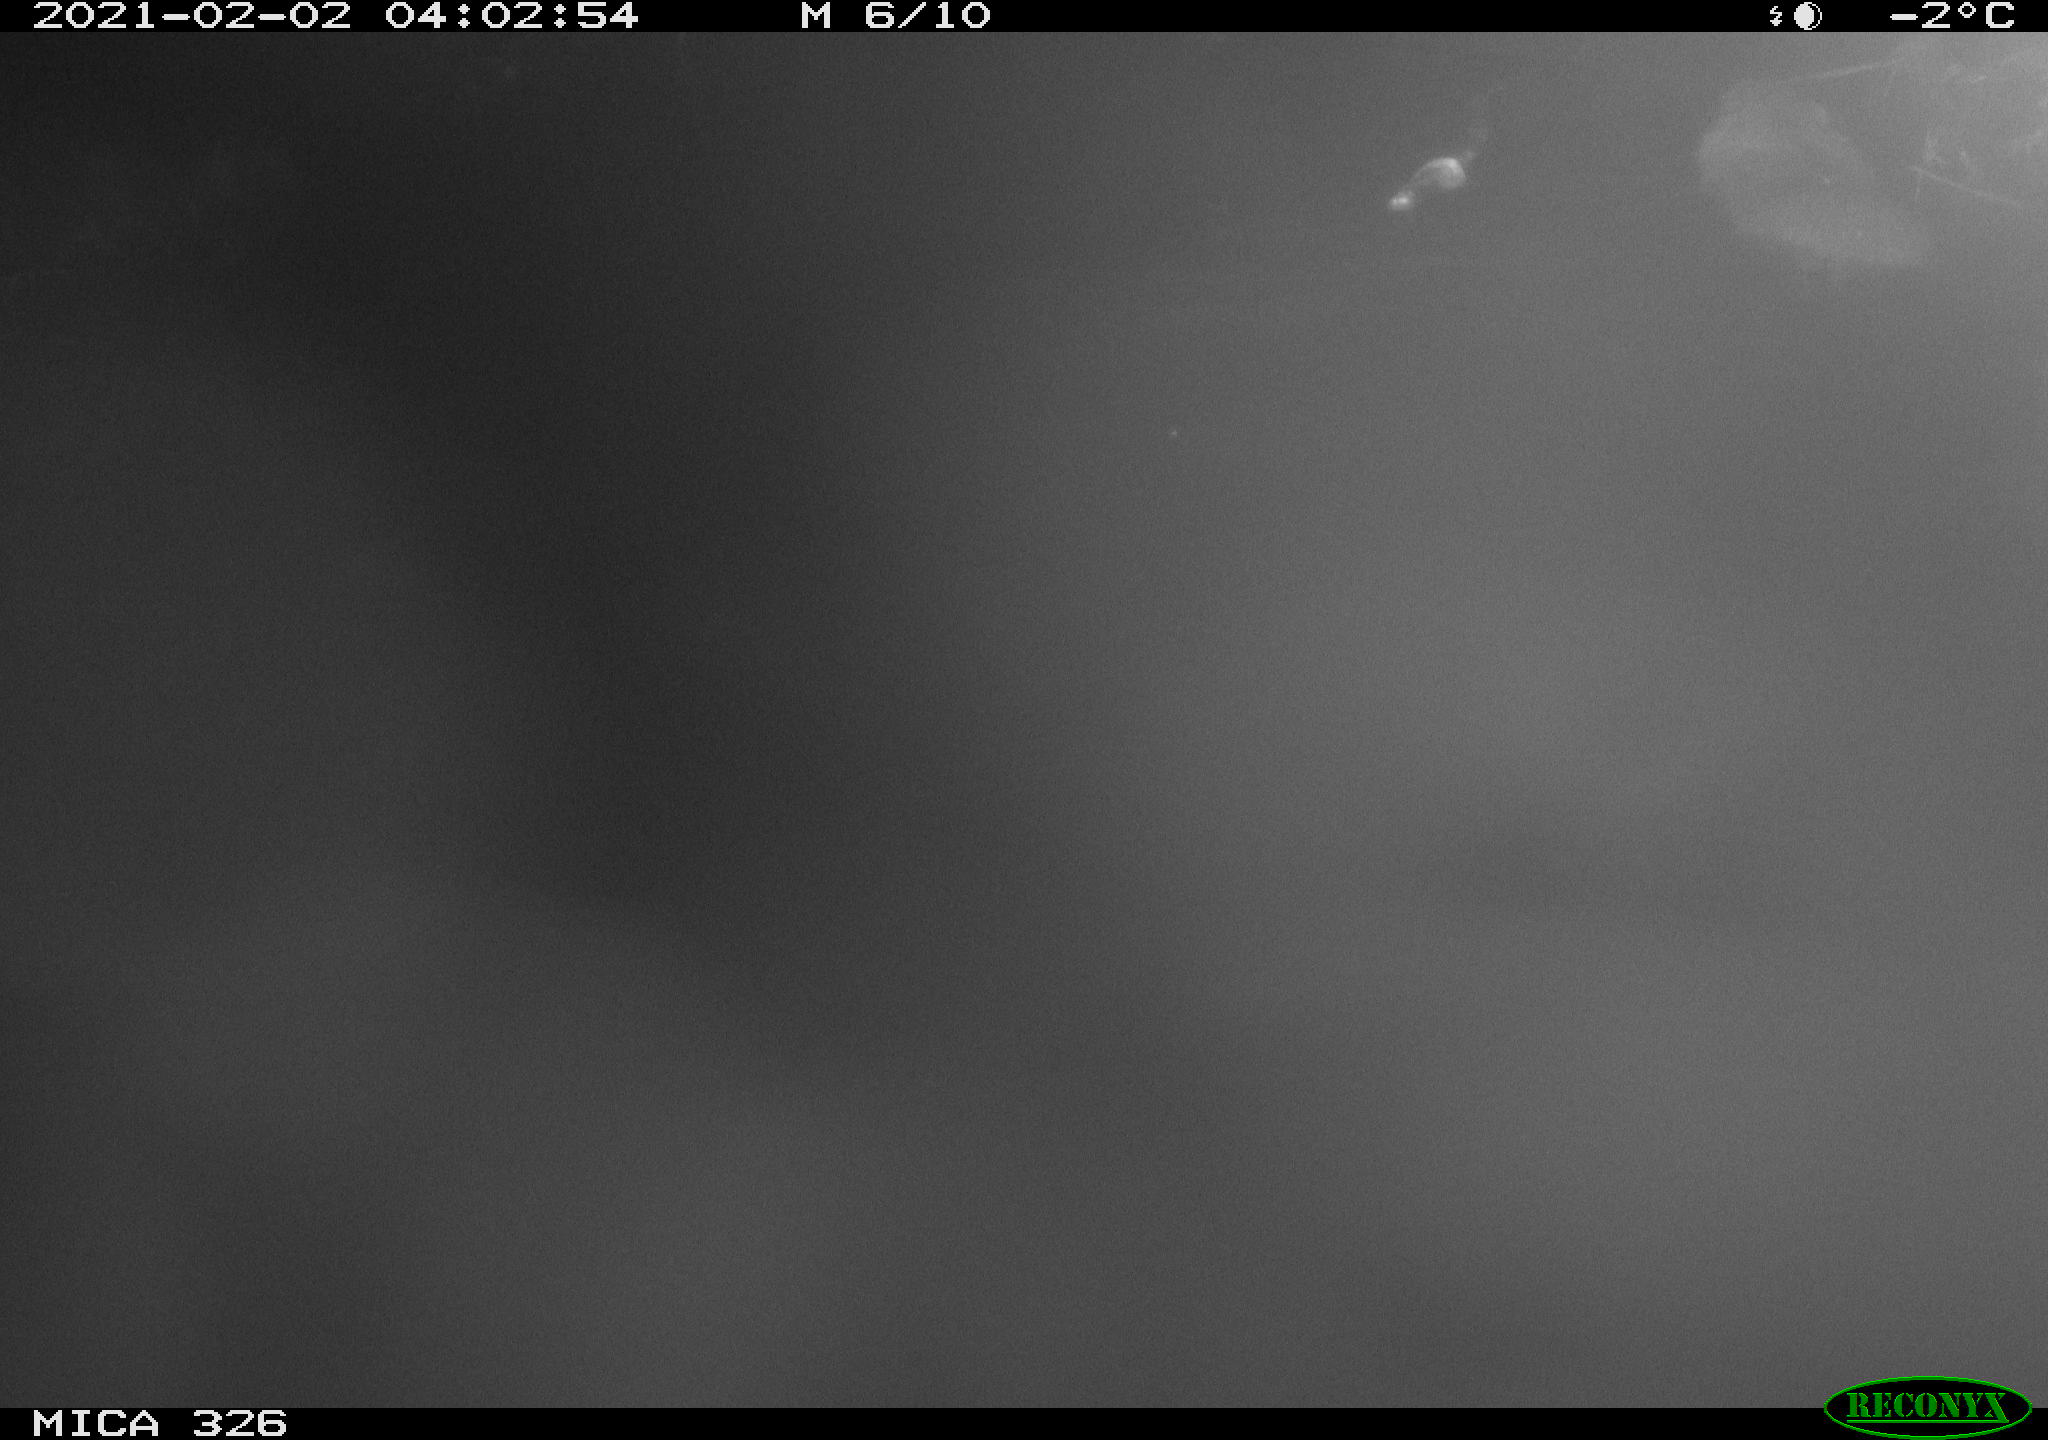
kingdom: Animalia
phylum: Chordata
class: Mammalia
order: Rodentia
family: Myocastoridae
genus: Myocastor
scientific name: Myocastor coypus
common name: Coypu
